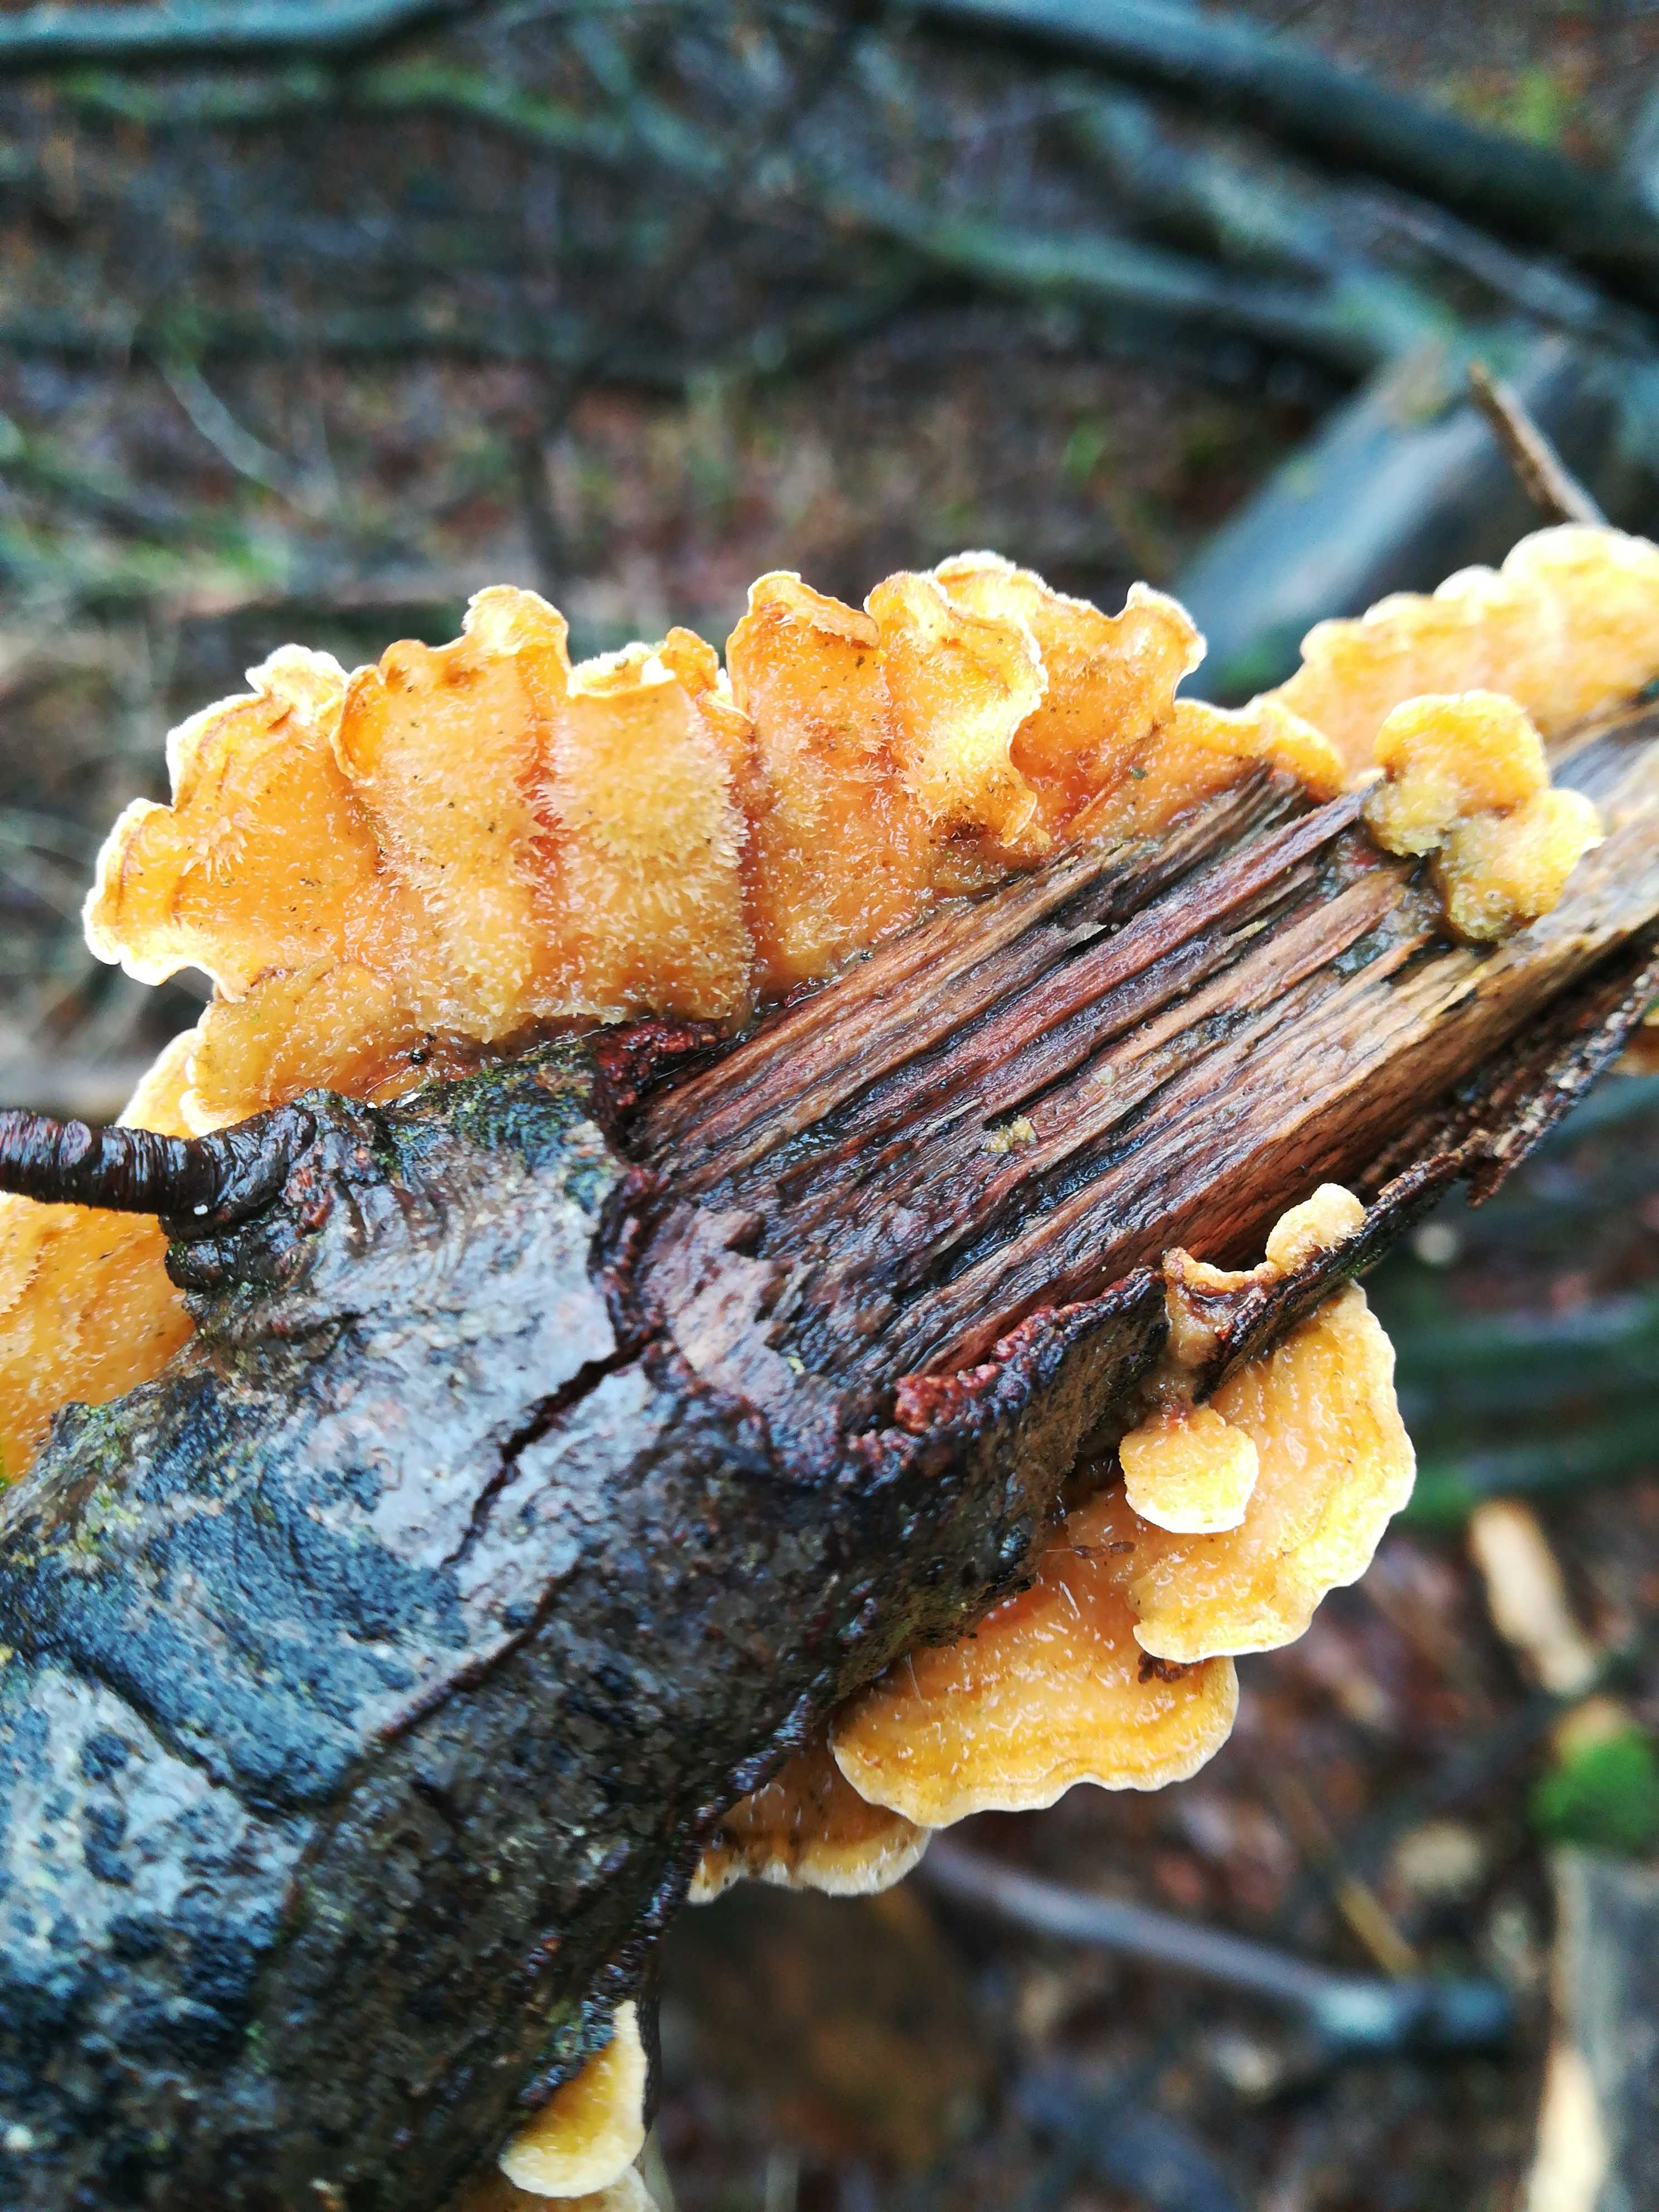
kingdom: Fungi
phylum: Basidiomycota
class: Agaricomycetes
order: Russulales
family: Stereaceae
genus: Stereum
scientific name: Stereum hirsutum
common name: håret lædersvamp
